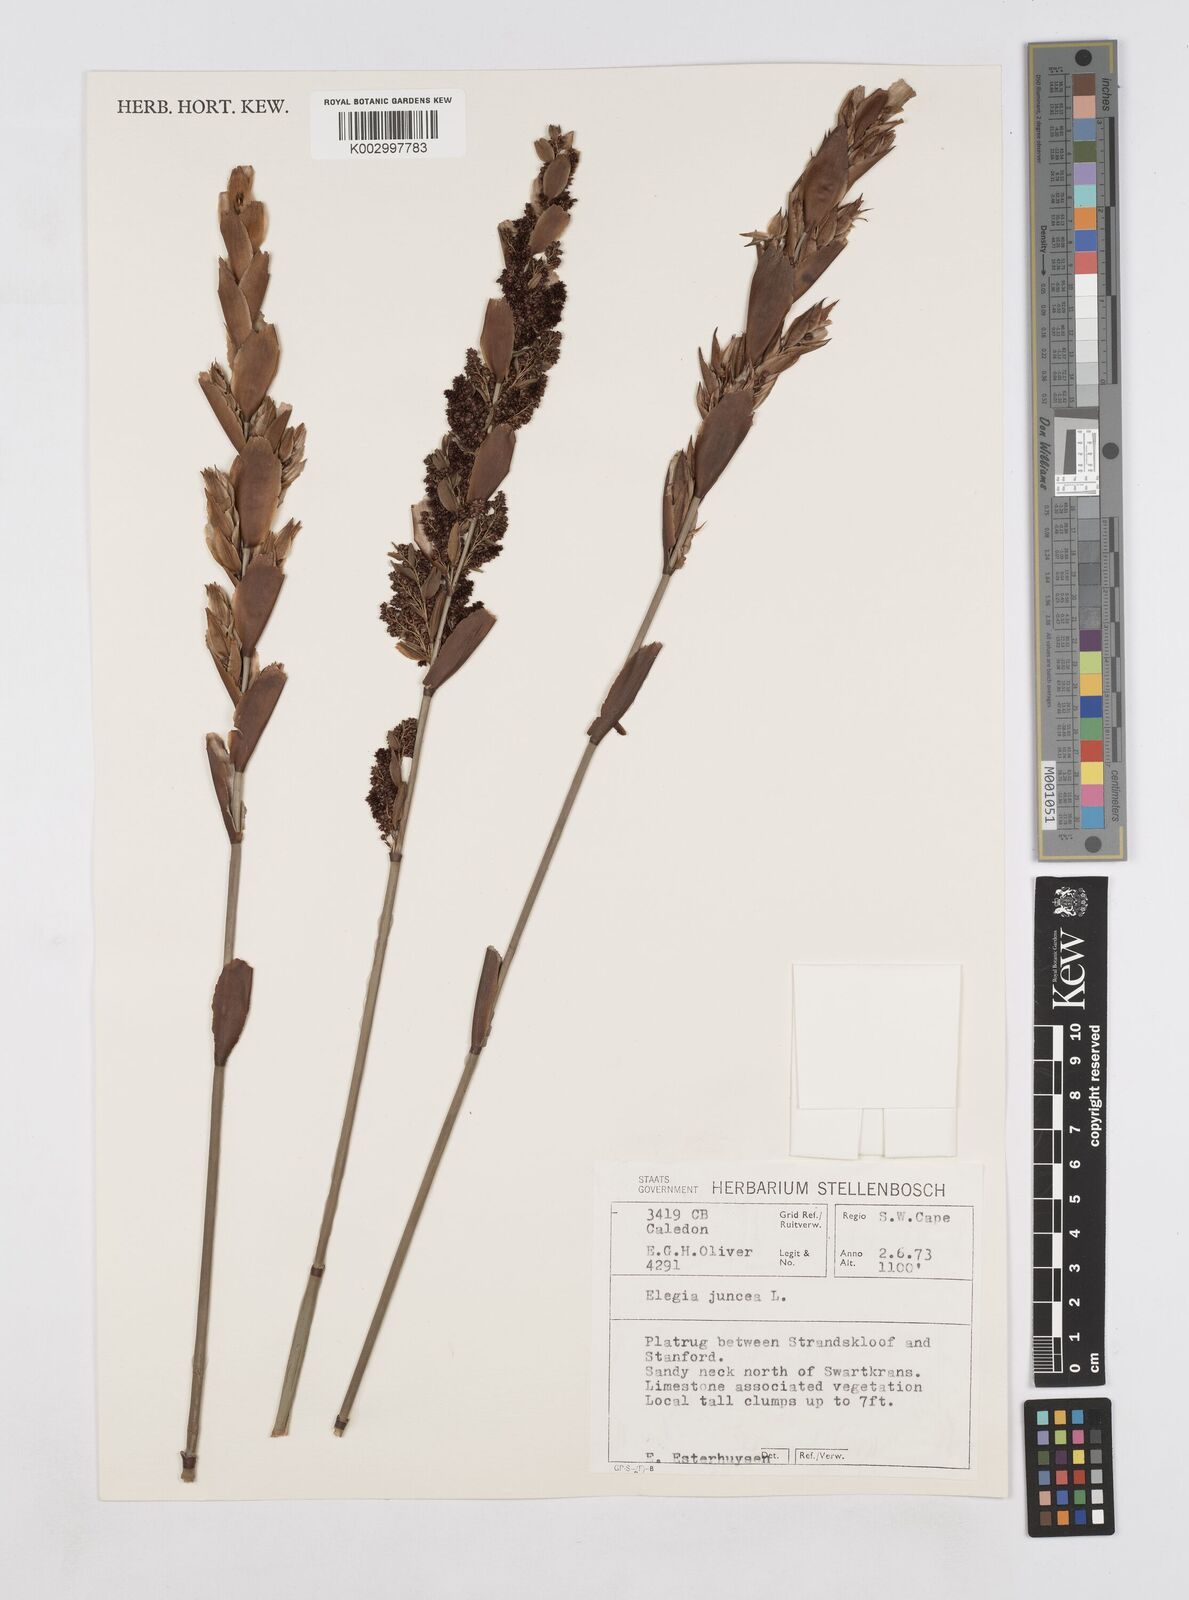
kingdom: Plantae
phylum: Tracheophyta
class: Liliopsida
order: Poales
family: Restionaceae
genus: Elegia
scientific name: Elegia juncea
